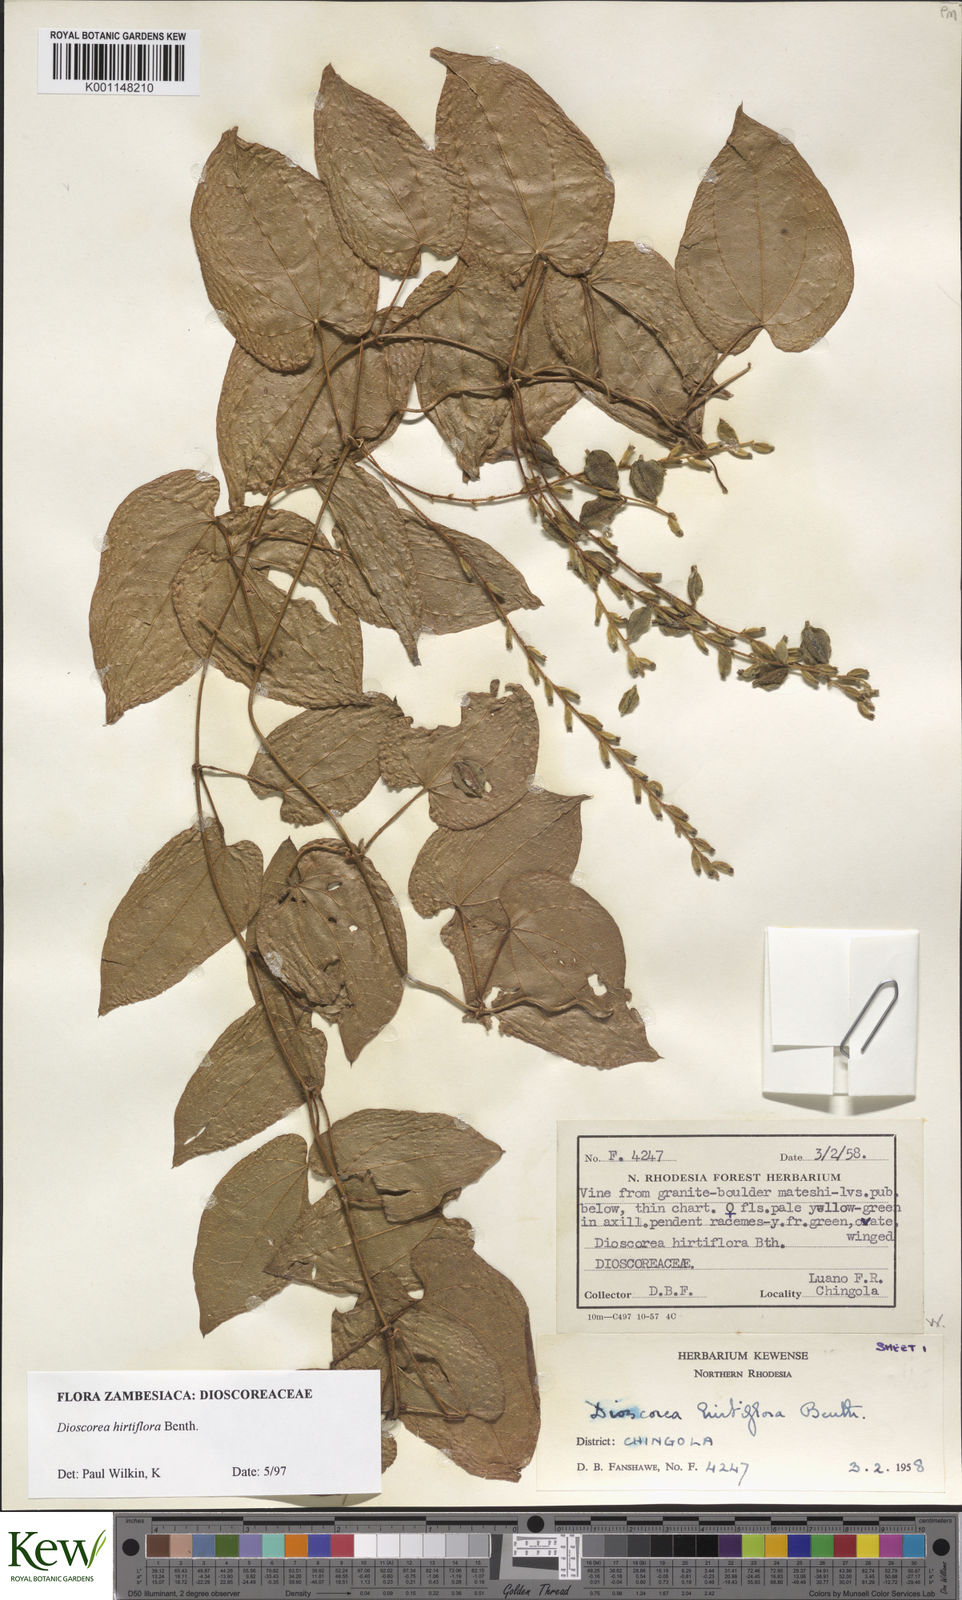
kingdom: Plantae
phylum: Tracheophyta
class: Liliopsida
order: Dioscoreales
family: Dioscoreaceae
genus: Dioscorea
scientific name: Dioscorea hirtiflora
